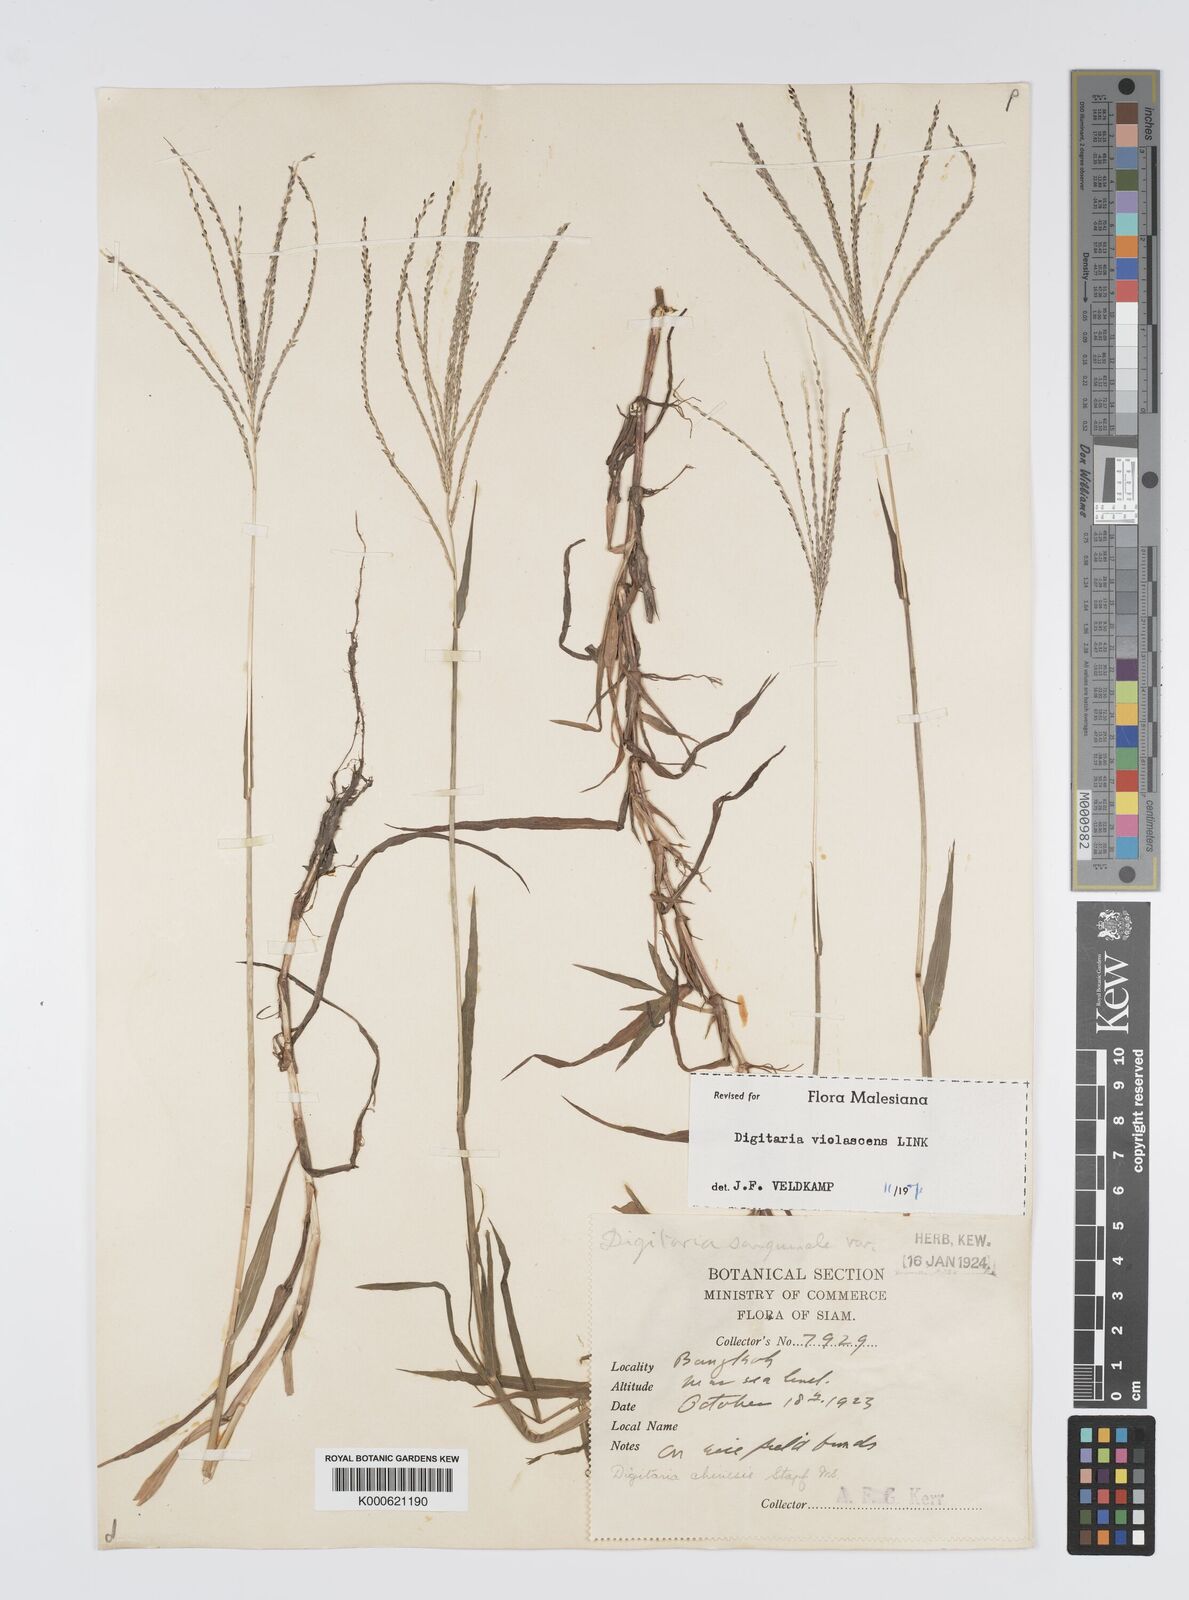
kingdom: Plantae
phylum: Tracheophyta
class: Liliopsida
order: Poales
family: Poaceae
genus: Digitaria
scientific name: Digitaria violascens
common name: Violet crabgrass
